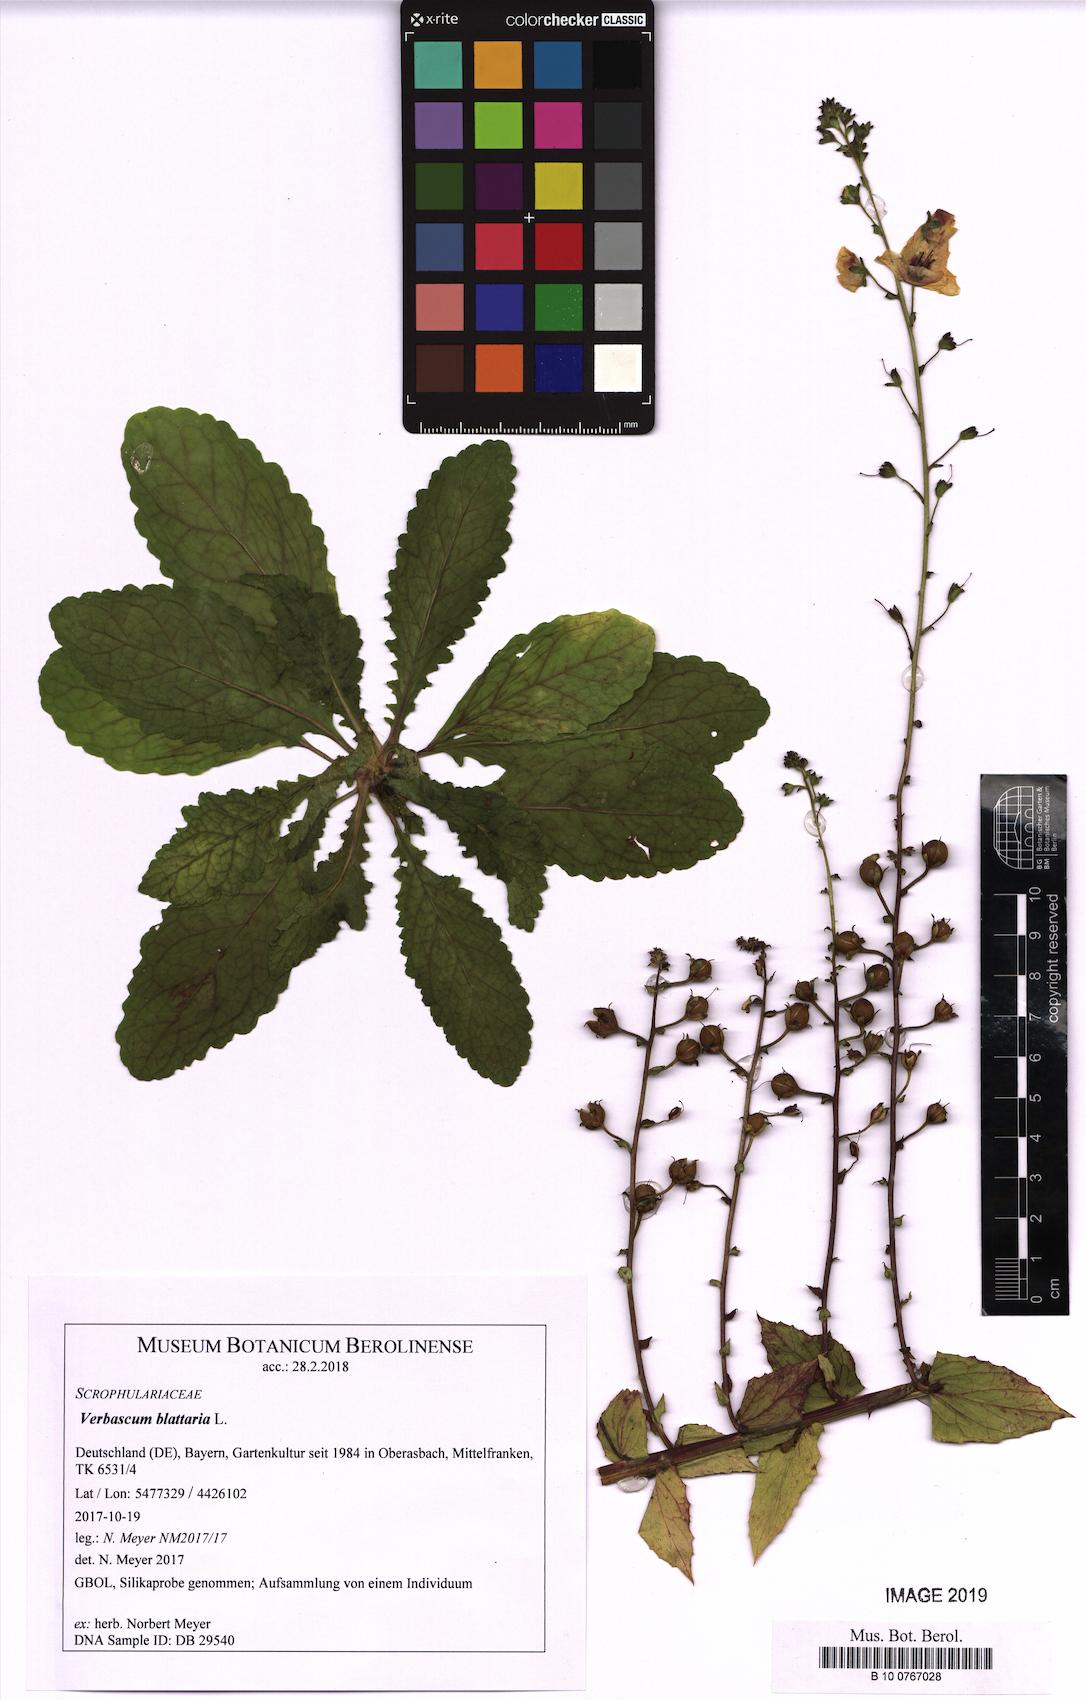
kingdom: Plantae
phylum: Tracheophyta
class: Magnoliopsida
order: Lamiales
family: Scrophulariaceae
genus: Verbascum
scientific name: Verbascum blattaria
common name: Moth mullein
